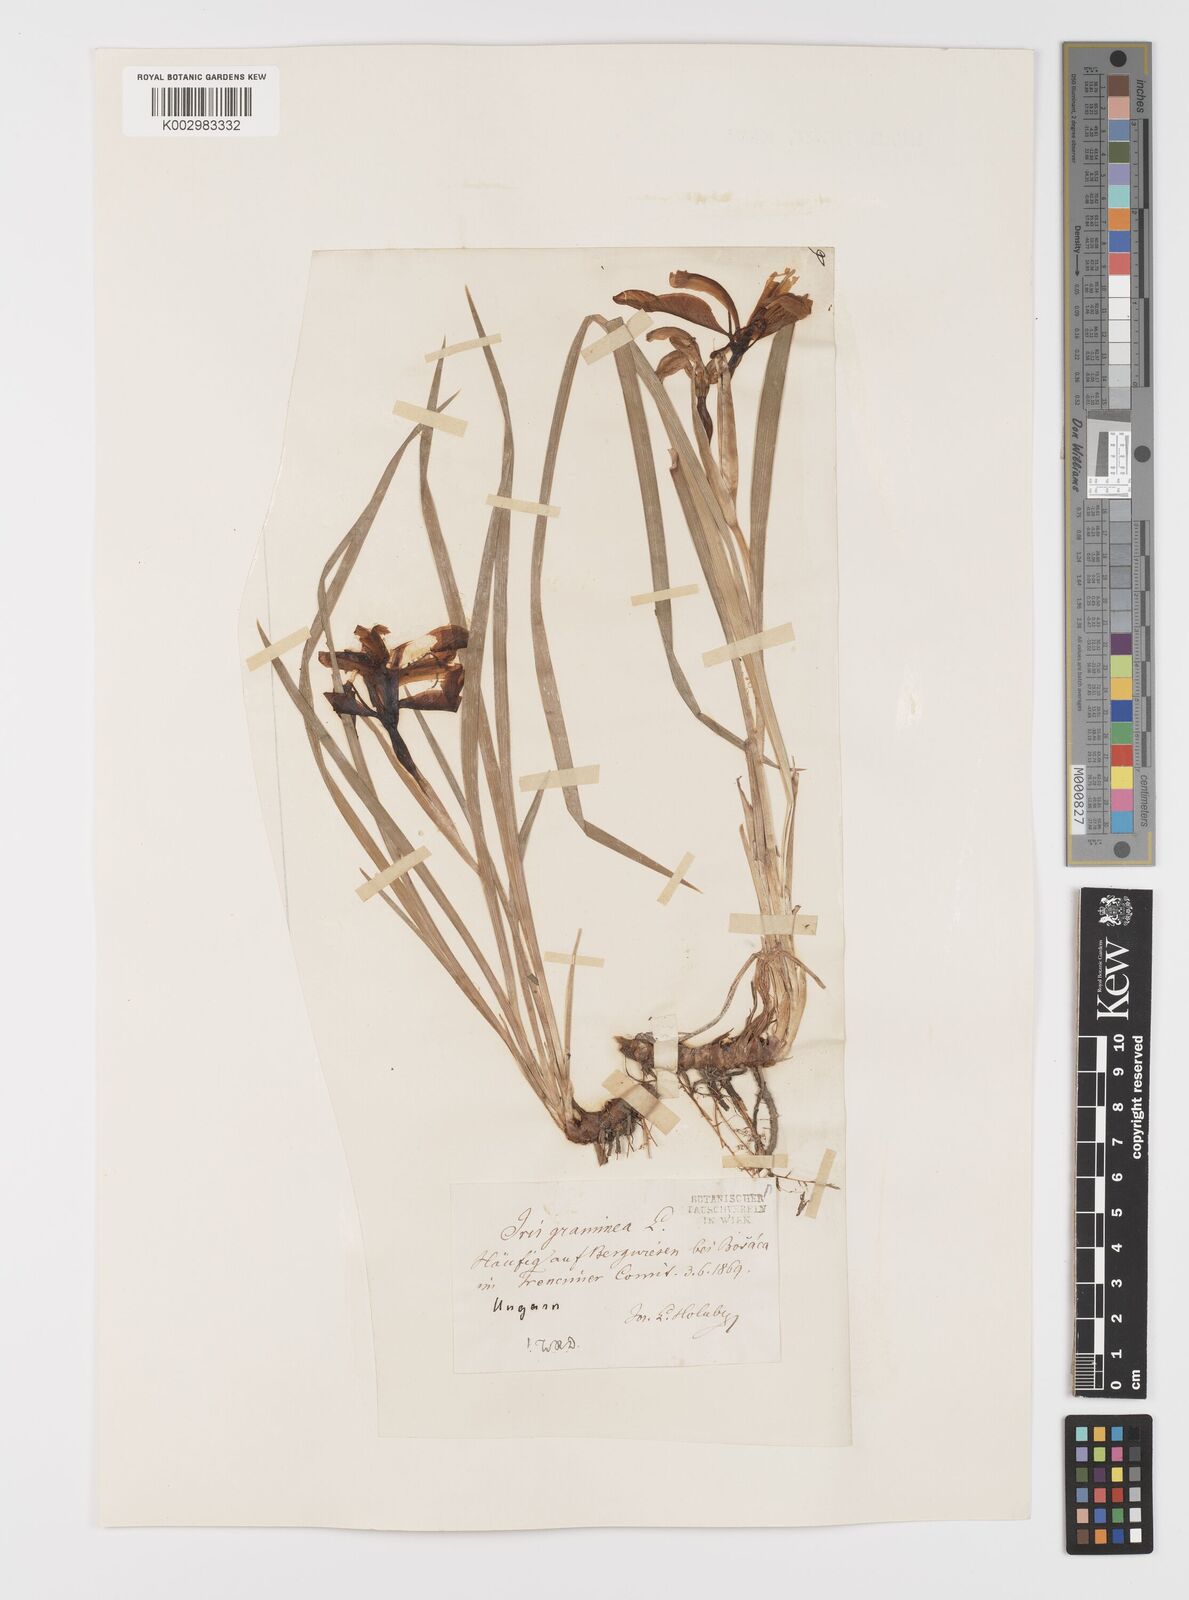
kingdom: Plantae
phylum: Tracheophyta
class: Liliopsida
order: Asparagales
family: Iridaceae
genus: Iris
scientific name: Iris graminea
